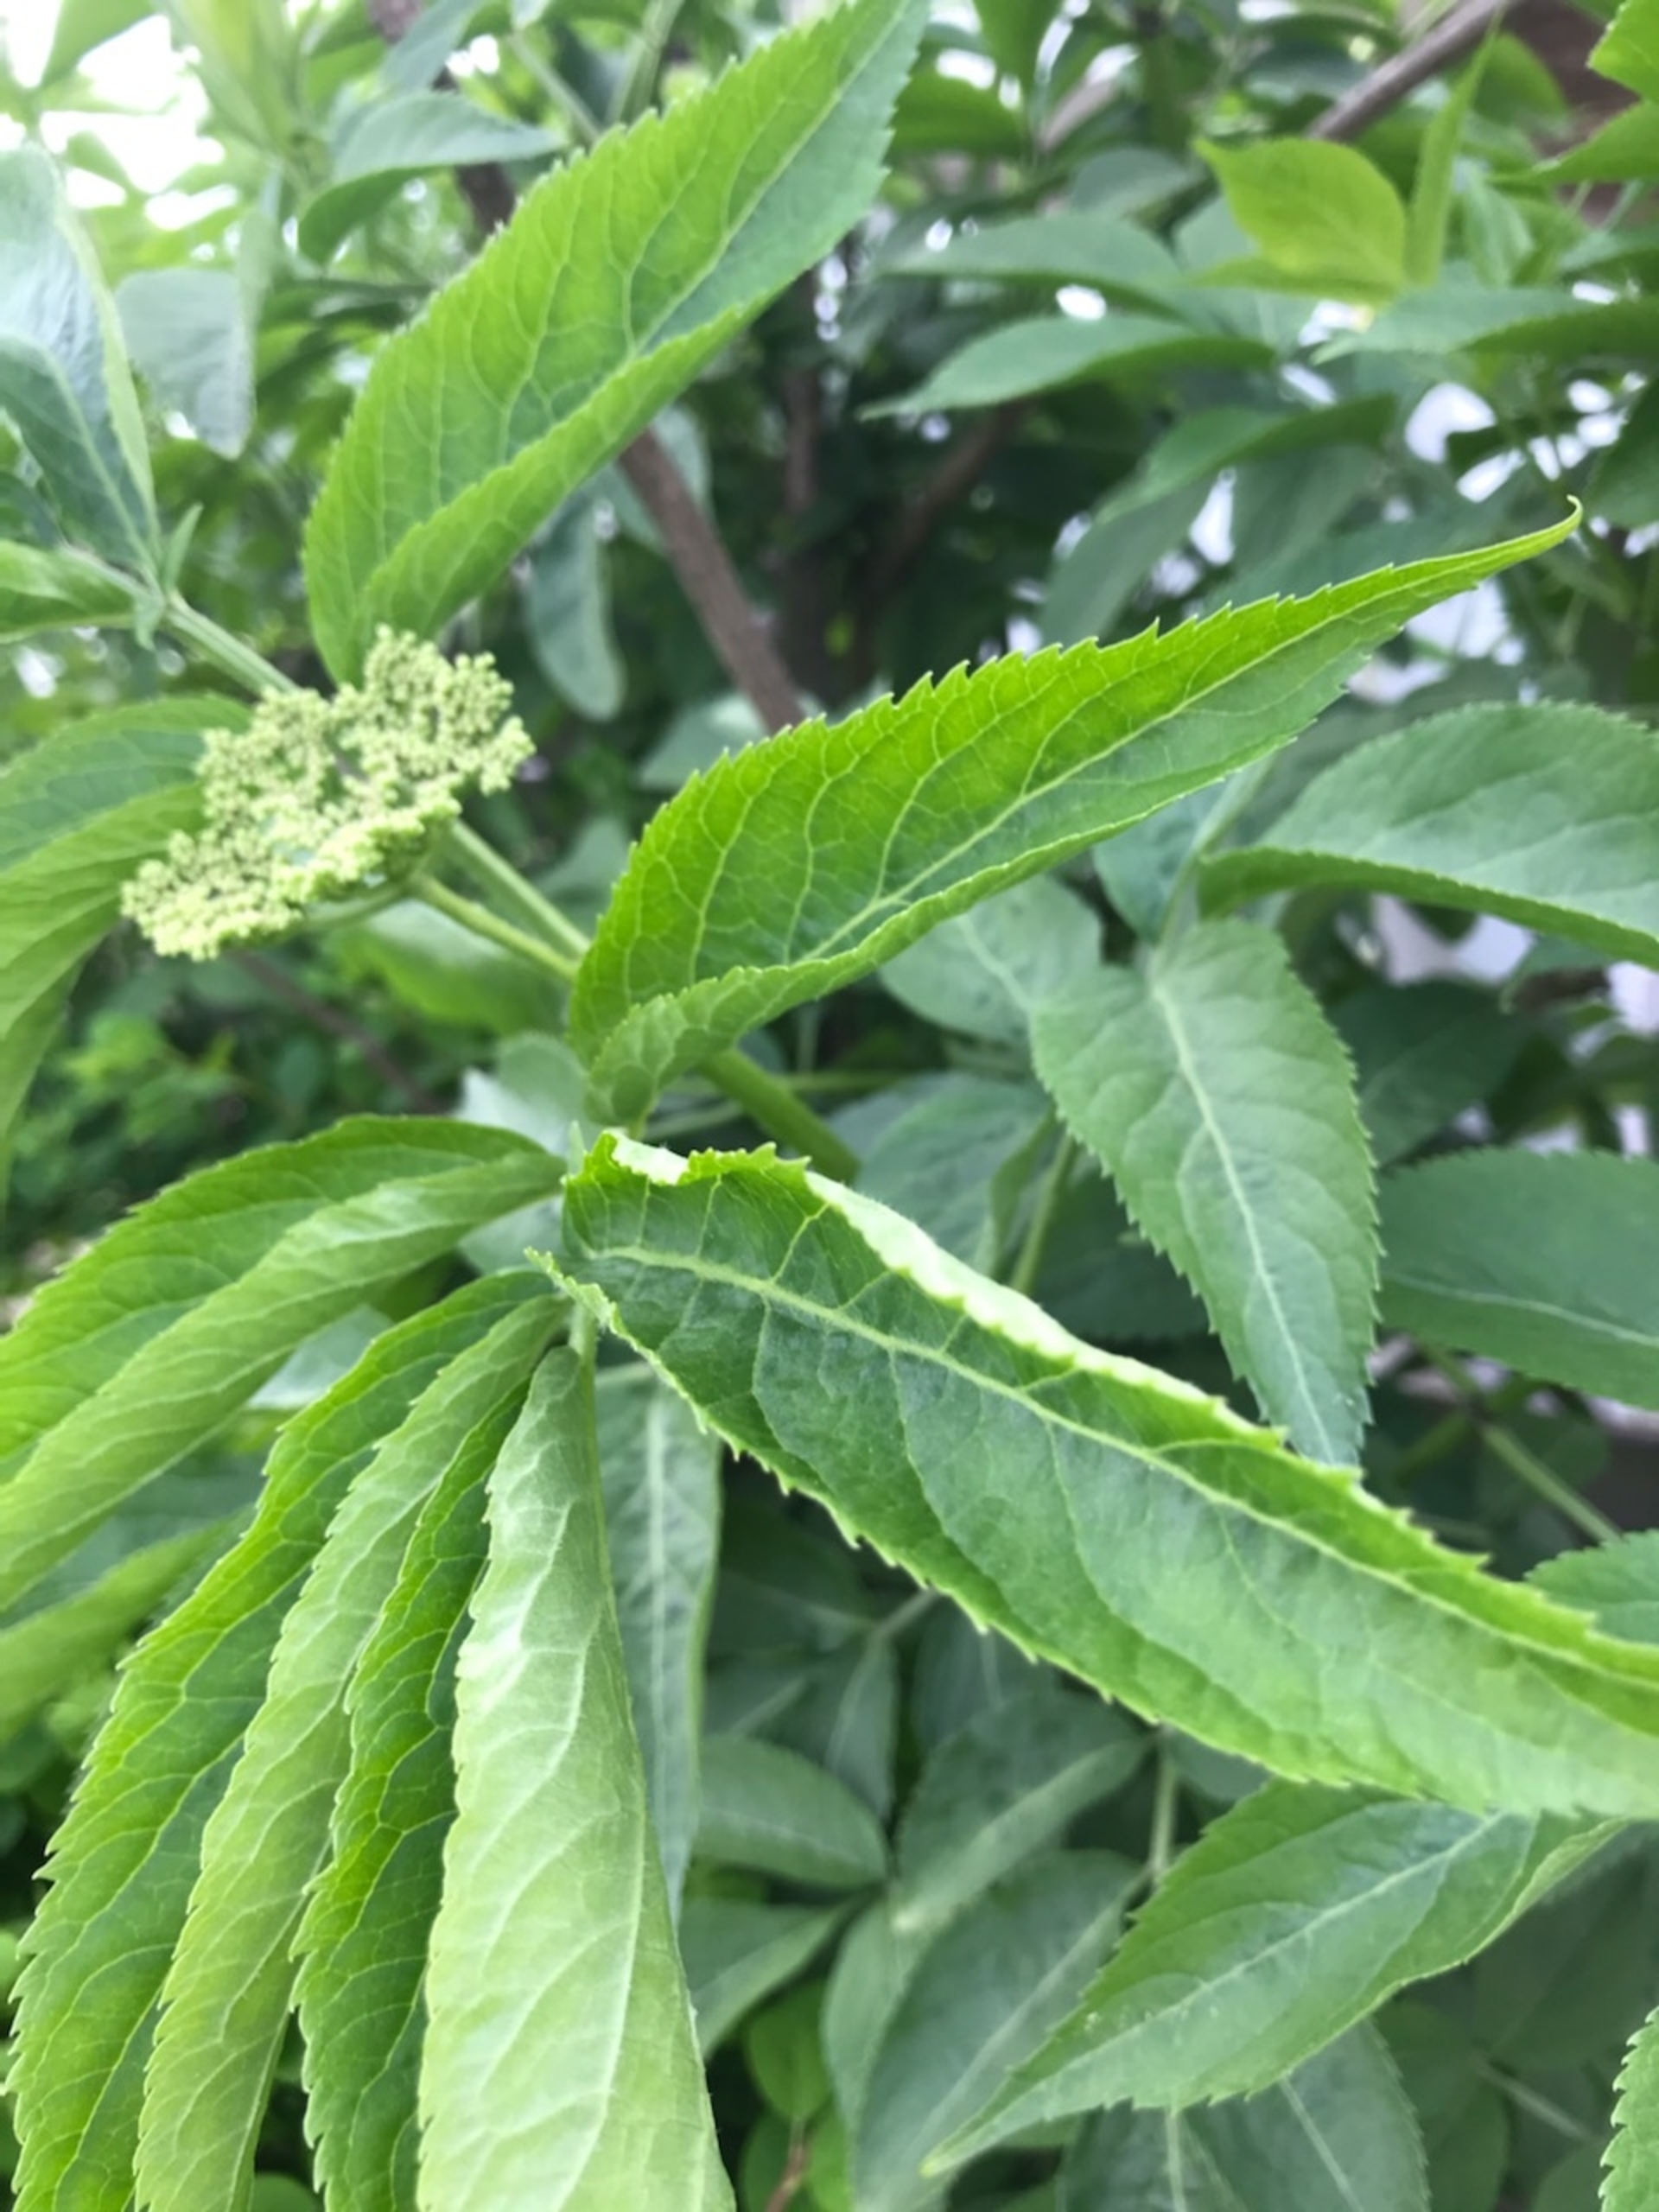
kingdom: Plantae
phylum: Tracheophyta
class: Magnoliopsida
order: Dipsacales
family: Viburnaceae
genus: Sambucus
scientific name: Sambucus nigra
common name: Almindelig hyld
